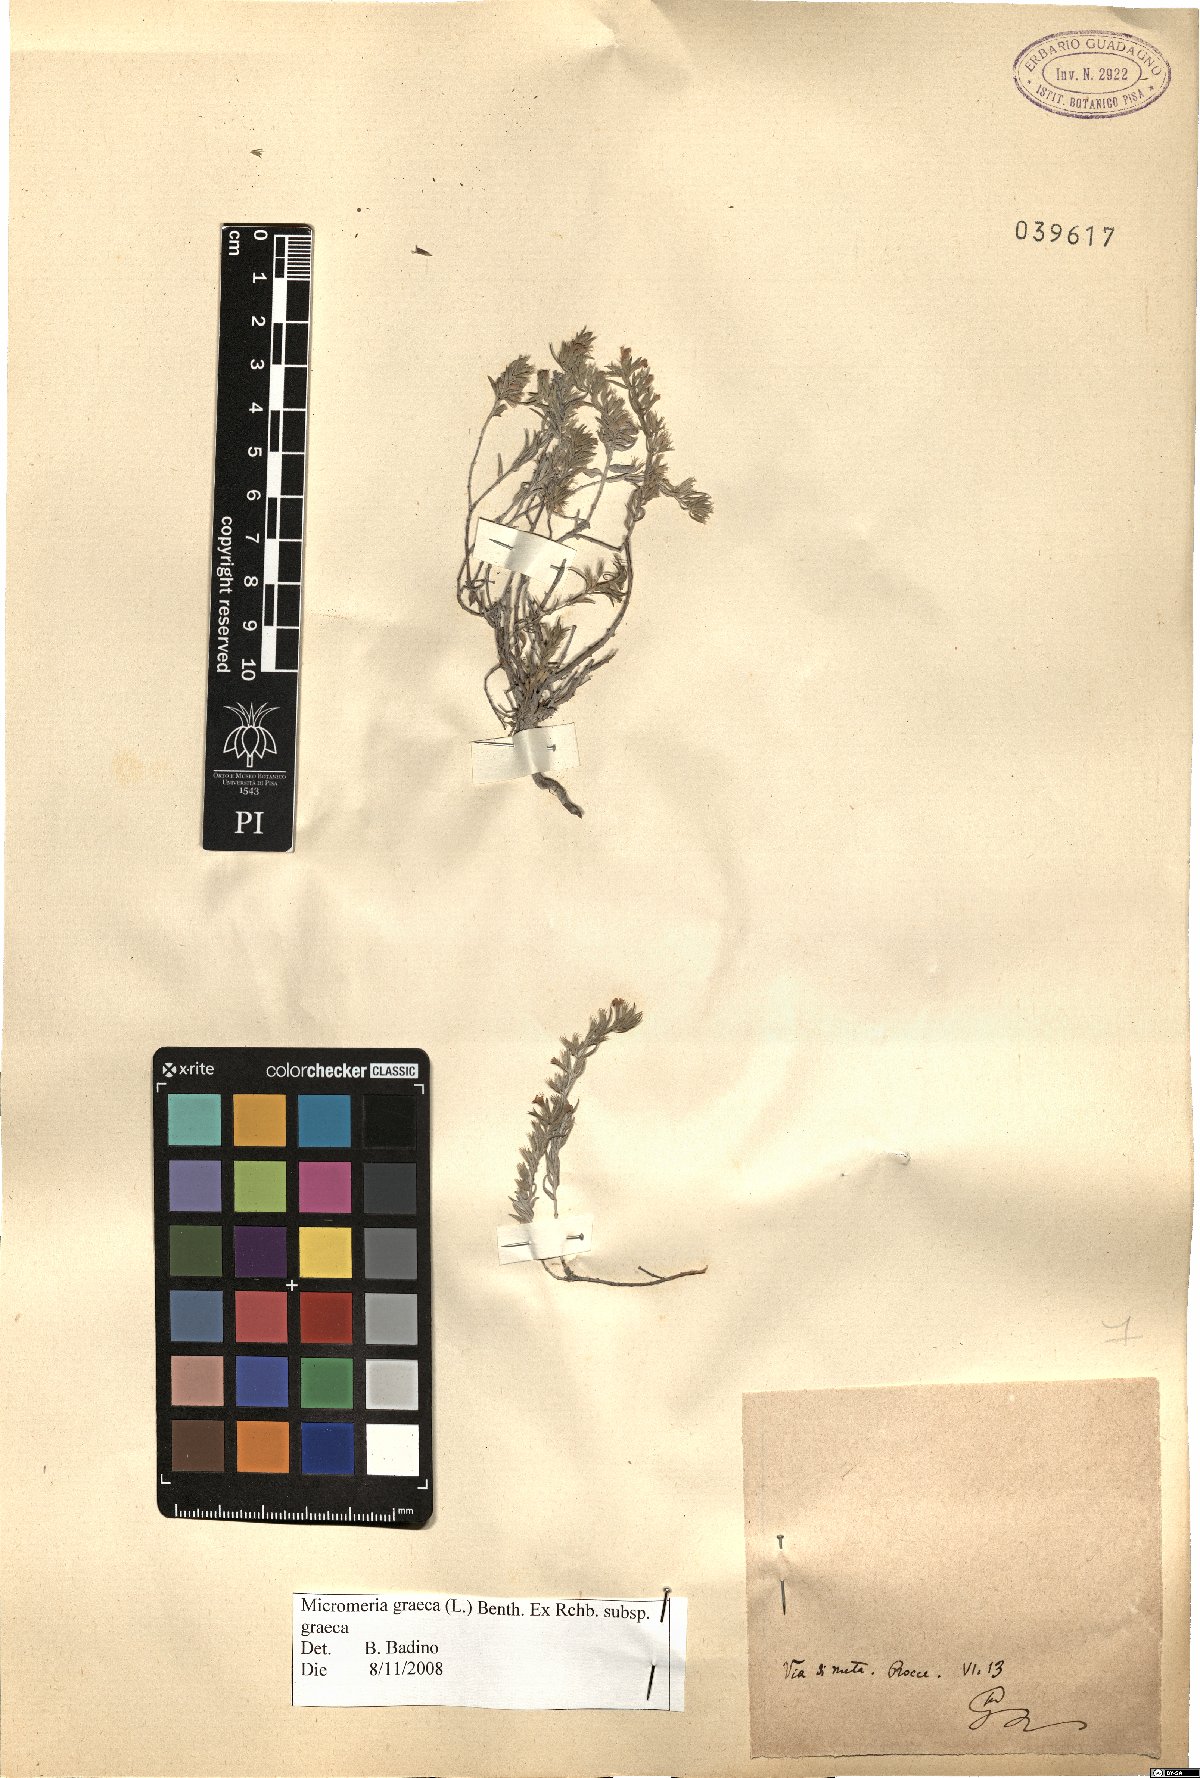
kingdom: Plantae
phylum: Tracheophyta
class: Magnoliopsida
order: Lamiales
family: Lamiaceae
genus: Micromeria
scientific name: Micromeria graeca
